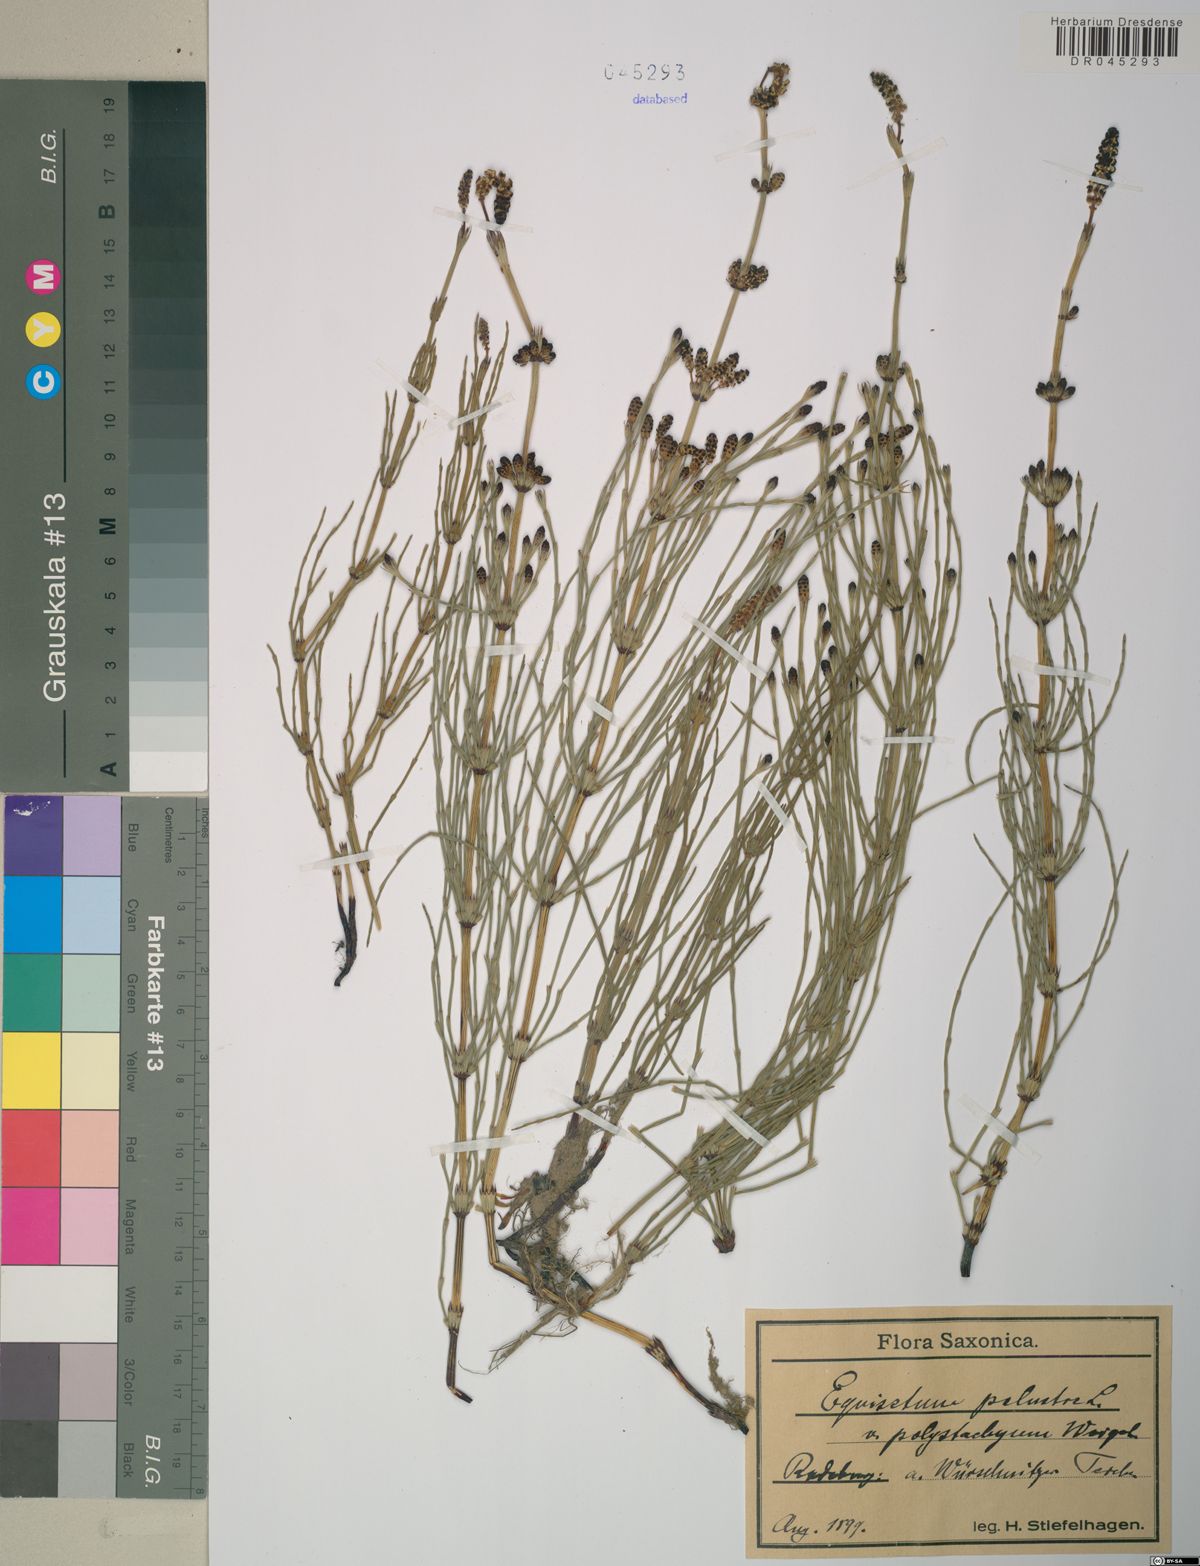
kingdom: Plantae
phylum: Tracheophyta
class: Polypodiopsida
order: Equisetales
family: Equisetaceae
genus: Equisetum
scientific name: Equisetum palustre
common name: Marsh horsetail
